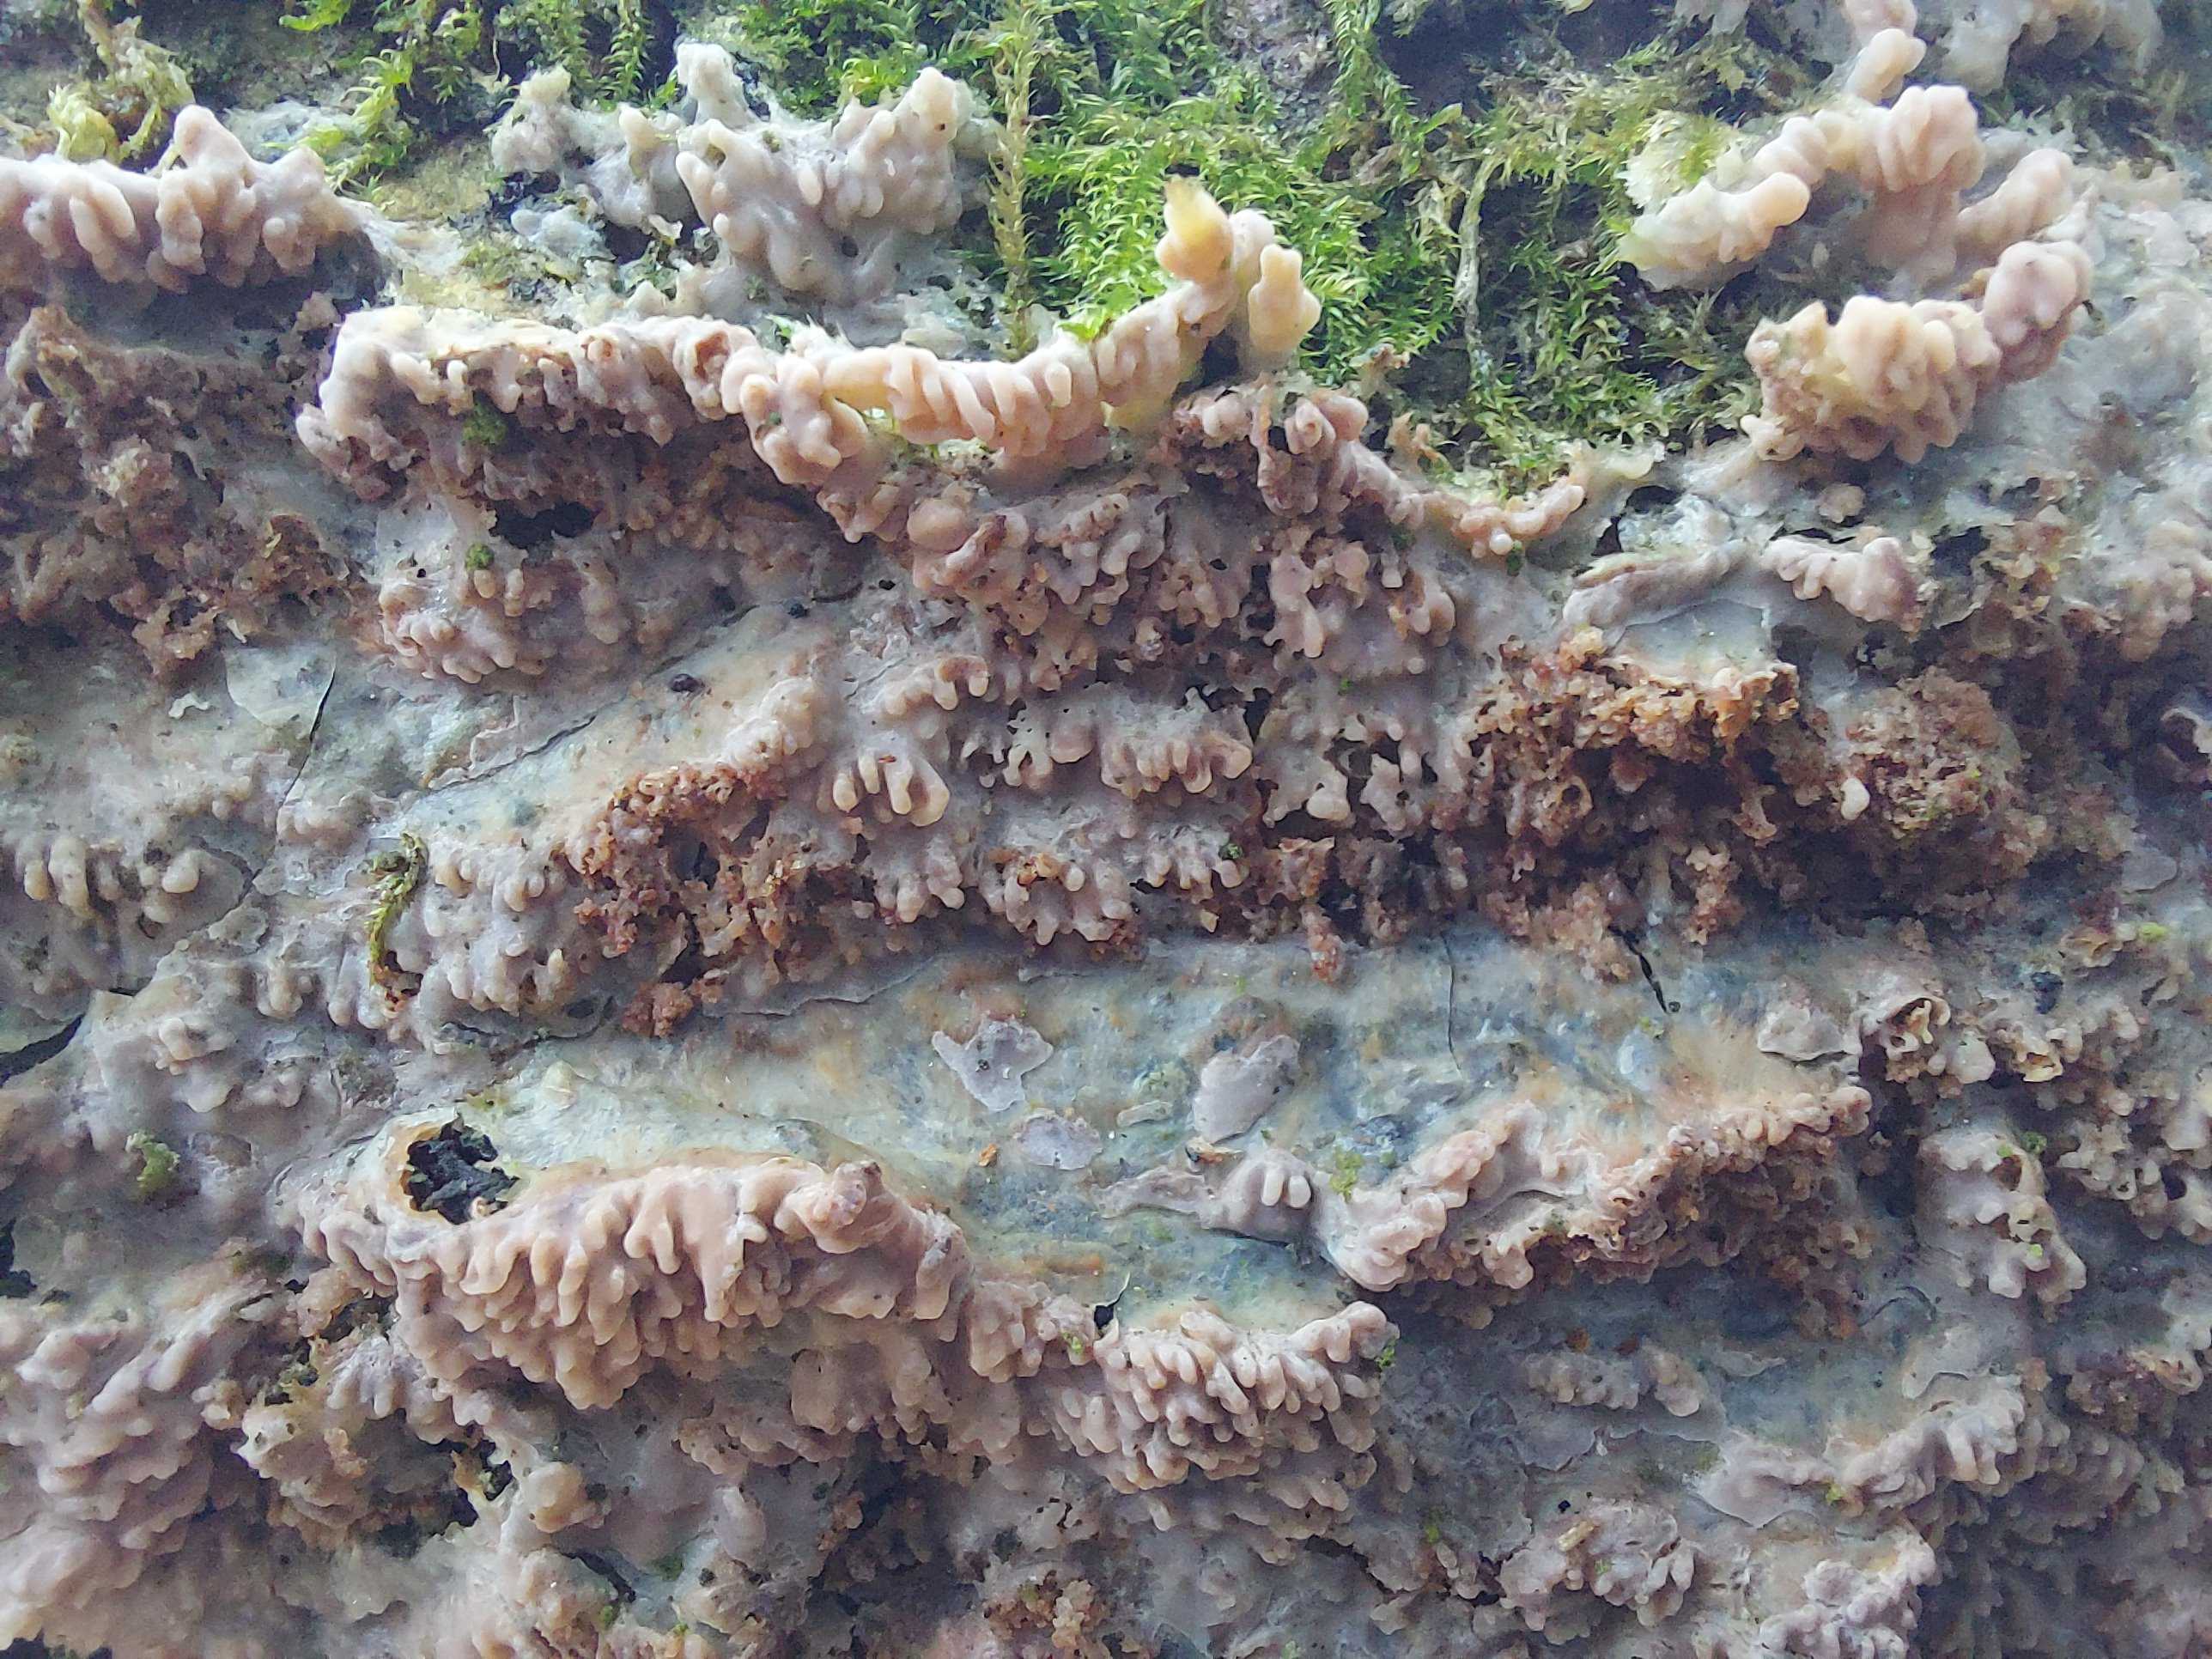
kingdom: Fungi
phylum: Basidiomycota
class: Agaricomycetes
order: Polyporales
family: Meruliaceae
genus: Phlebia
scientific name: Phlebia radiata
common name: stråle-åresvamp
